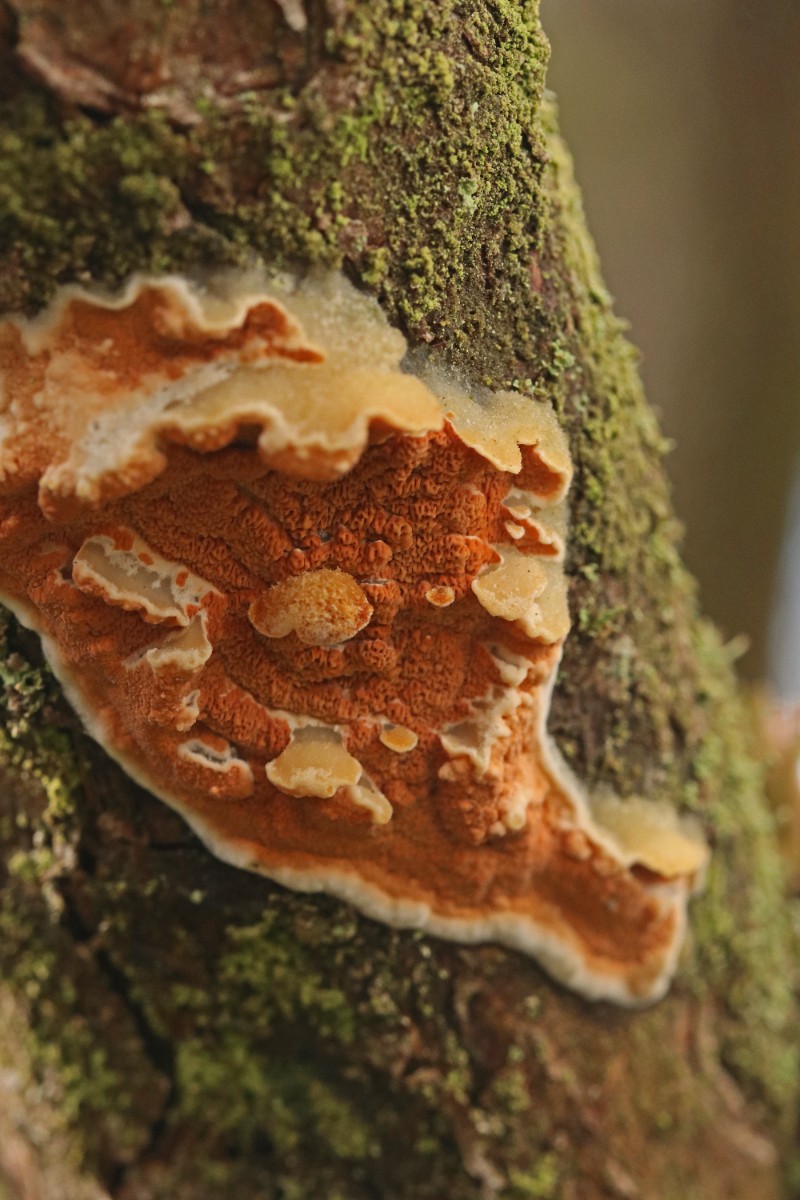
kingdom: Fungi
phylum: Basidiomycota
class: Agaricomycetes
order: Polyporales
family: Irpicaceae
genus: Meruliopsis
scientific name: Meruliopsis taxicola
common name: purpurbrun foldporesvamp
